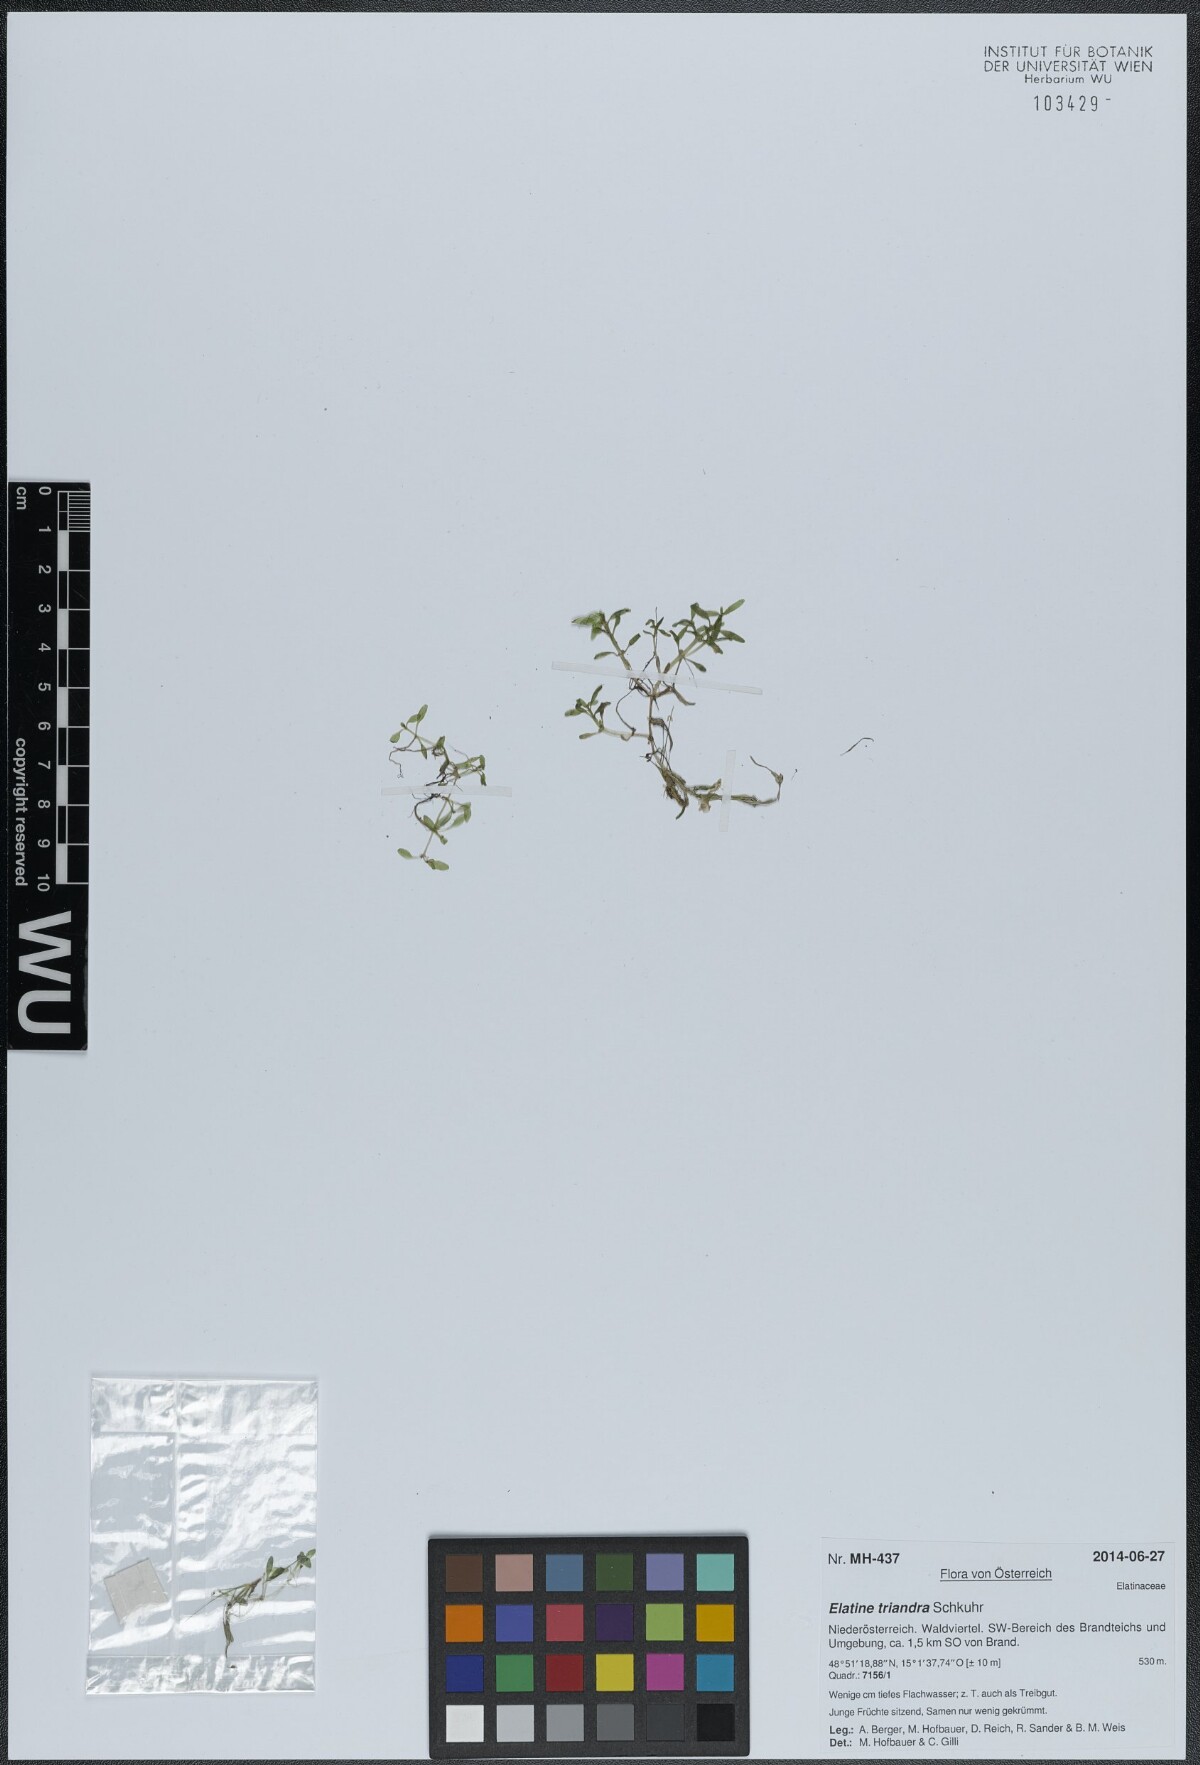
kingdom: Plantae
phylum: Tracheophyta
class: Magnoliopsida
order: Malpighiales
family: Elatinaceae
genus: Elatine
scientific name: Elatine triandra
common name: Three-stamened waterwort
